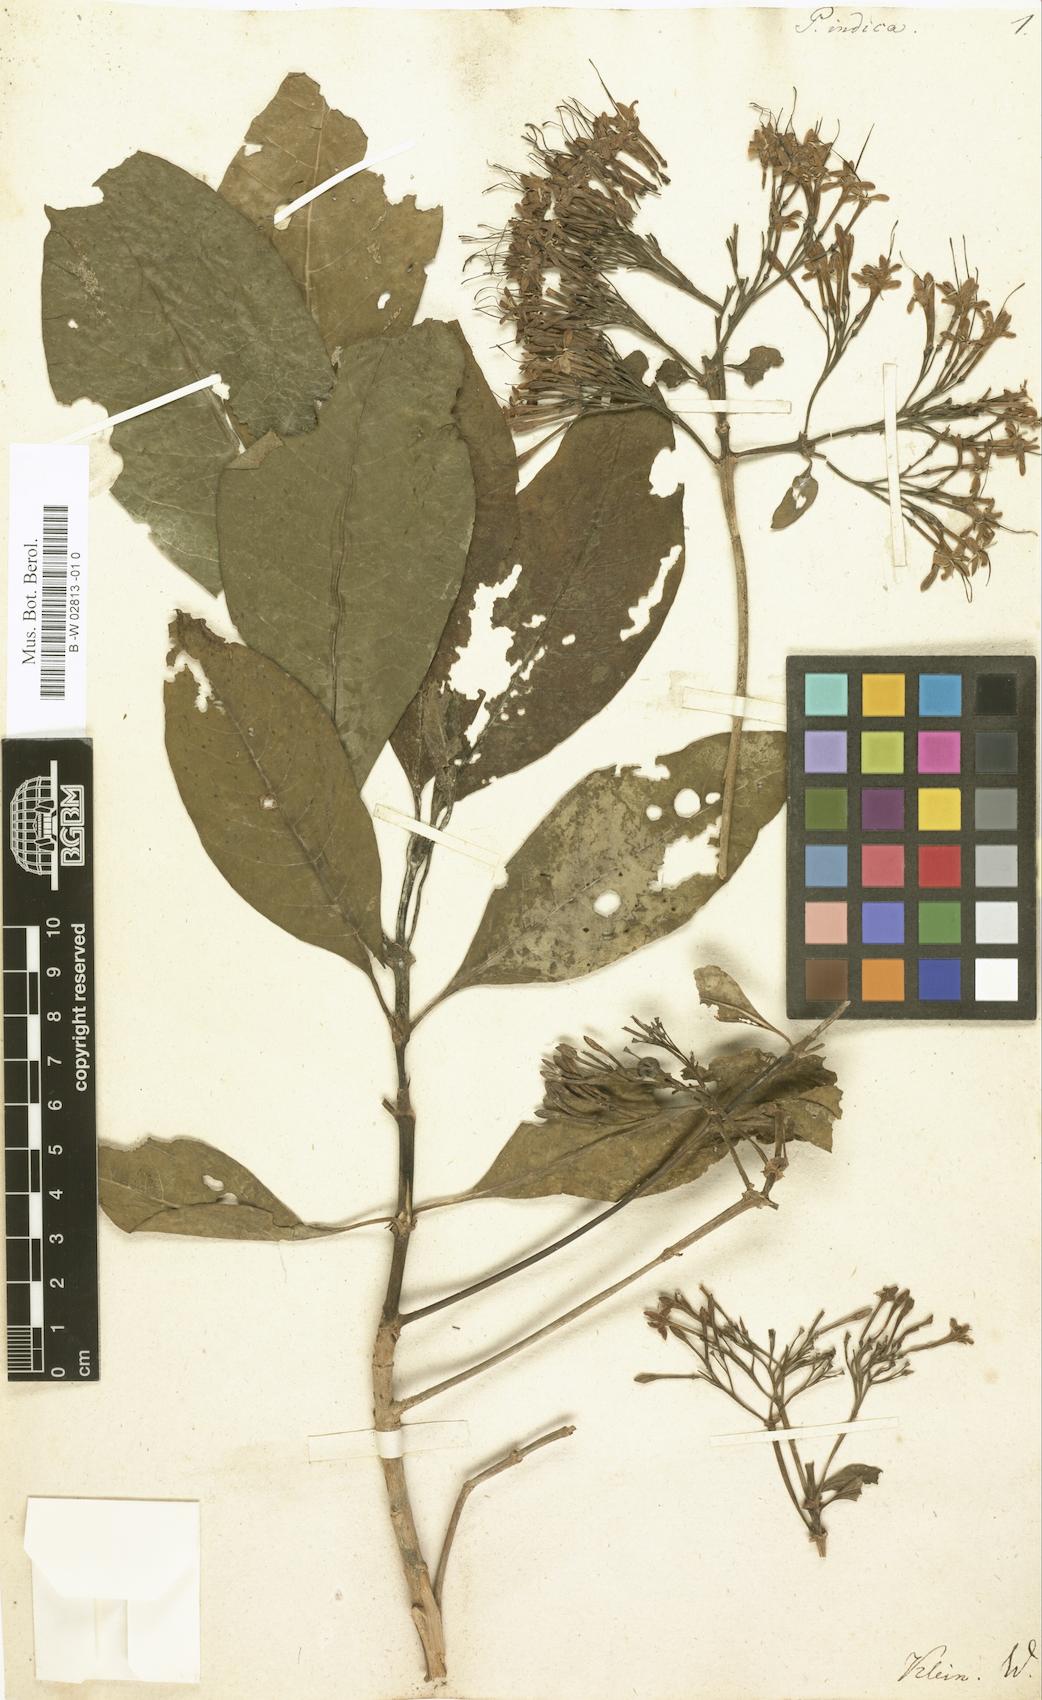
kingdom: Plantae
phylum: Tracheophyta
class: Magnoliopsida
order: Gentianales
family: Rubiaceae
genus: Pavetta
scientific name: Pavetta indica
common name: Indian pavetta
